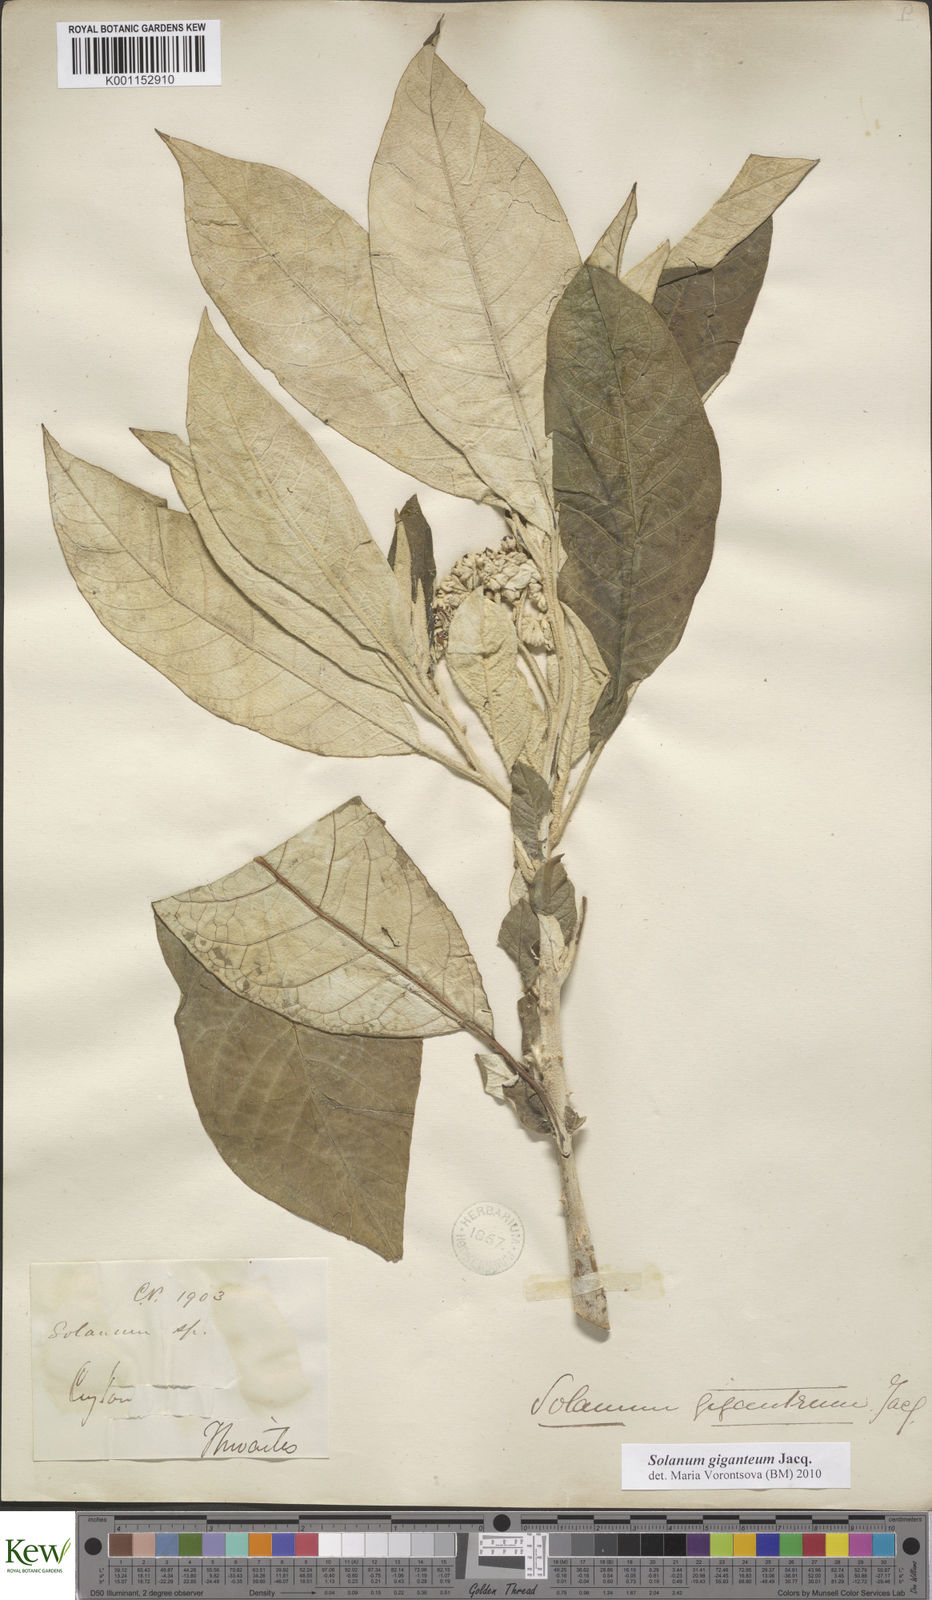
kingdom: Plantae
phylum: Tracheophyta
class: Magnoliopsida
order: Solanales
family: Solanaceae
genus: Solanum
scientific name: Solanum giganteum
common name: Healing-leaf-tree
